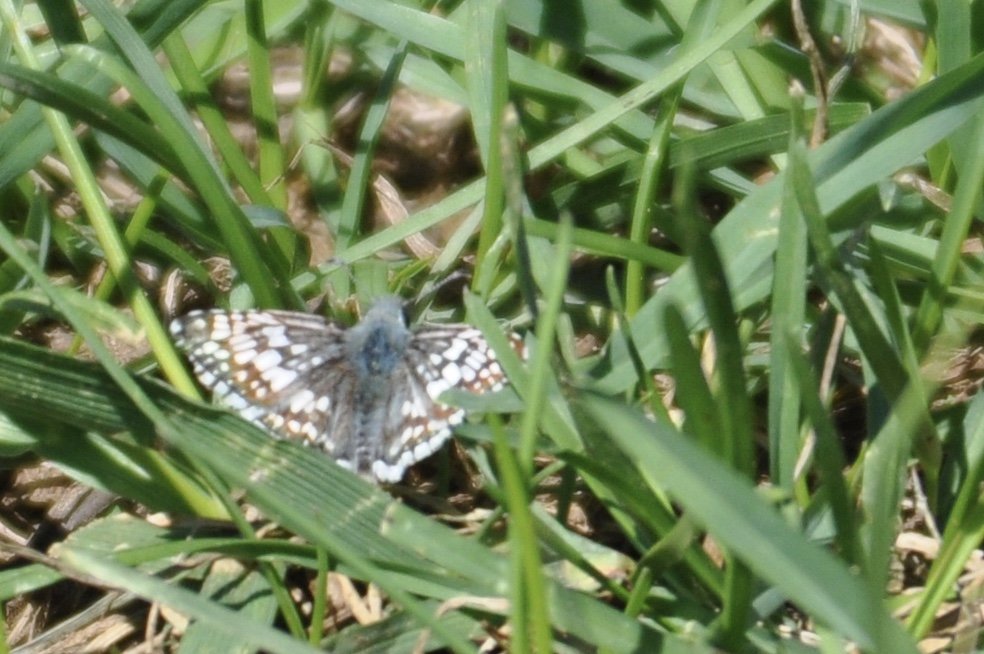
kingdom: Animalia
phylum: Arthropoda
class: Insecta
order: Lepidoptera
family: Hesperiidae
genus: Pyrgus
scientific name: Pyrgus communis
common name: Common Checkered-Skipper
